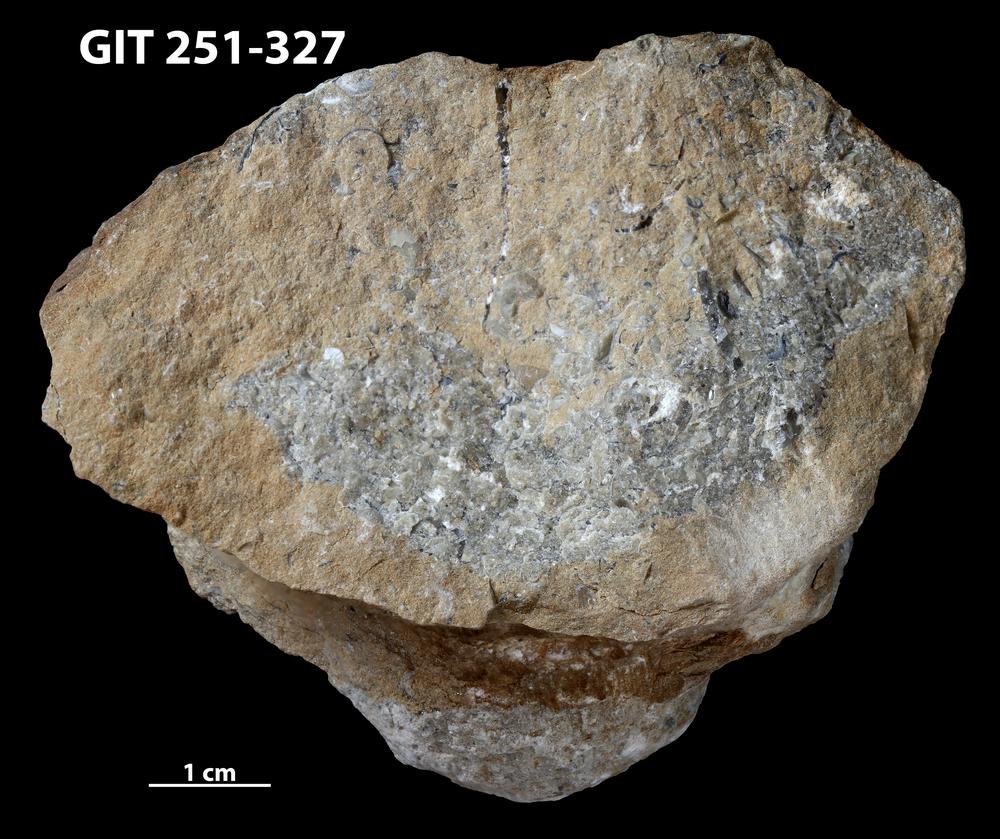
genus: Conichnus
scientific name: Conichnus
